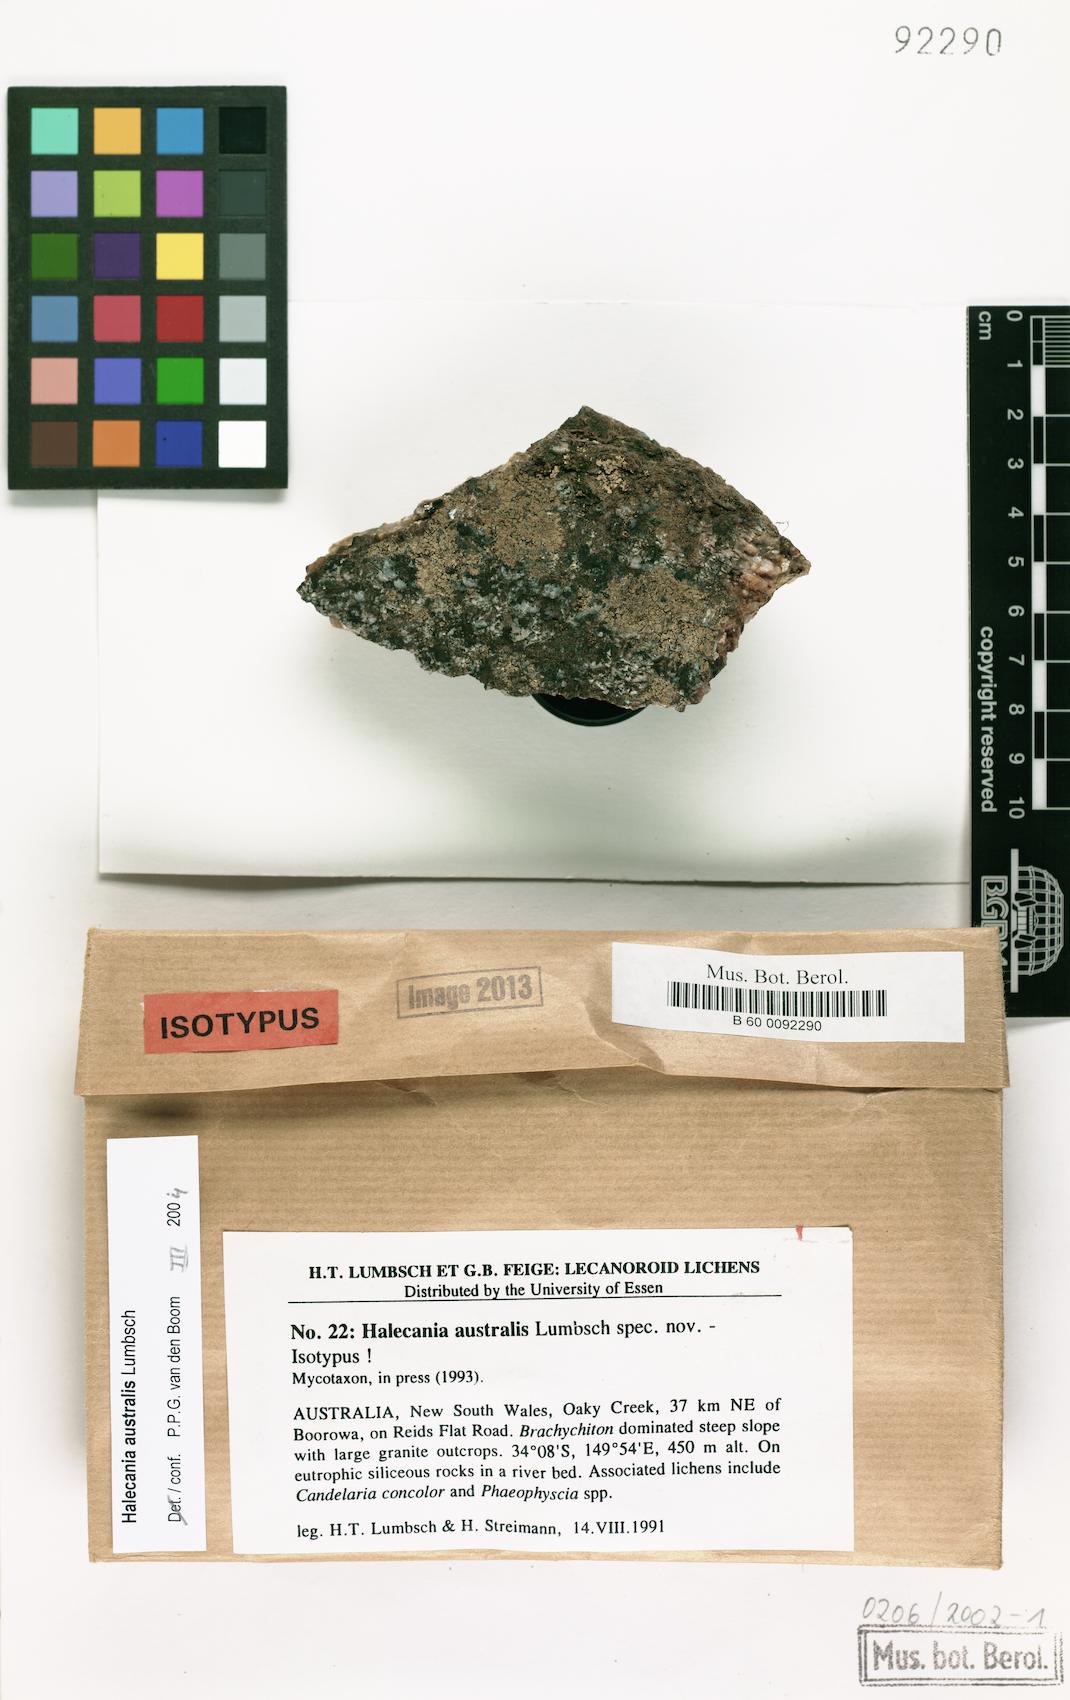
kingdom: Fungi
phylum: Ascomycota
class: Lecanoromycetes
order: Teloschistales
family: Leprocaulaceae
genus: Halecania
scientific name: Halecania australis
